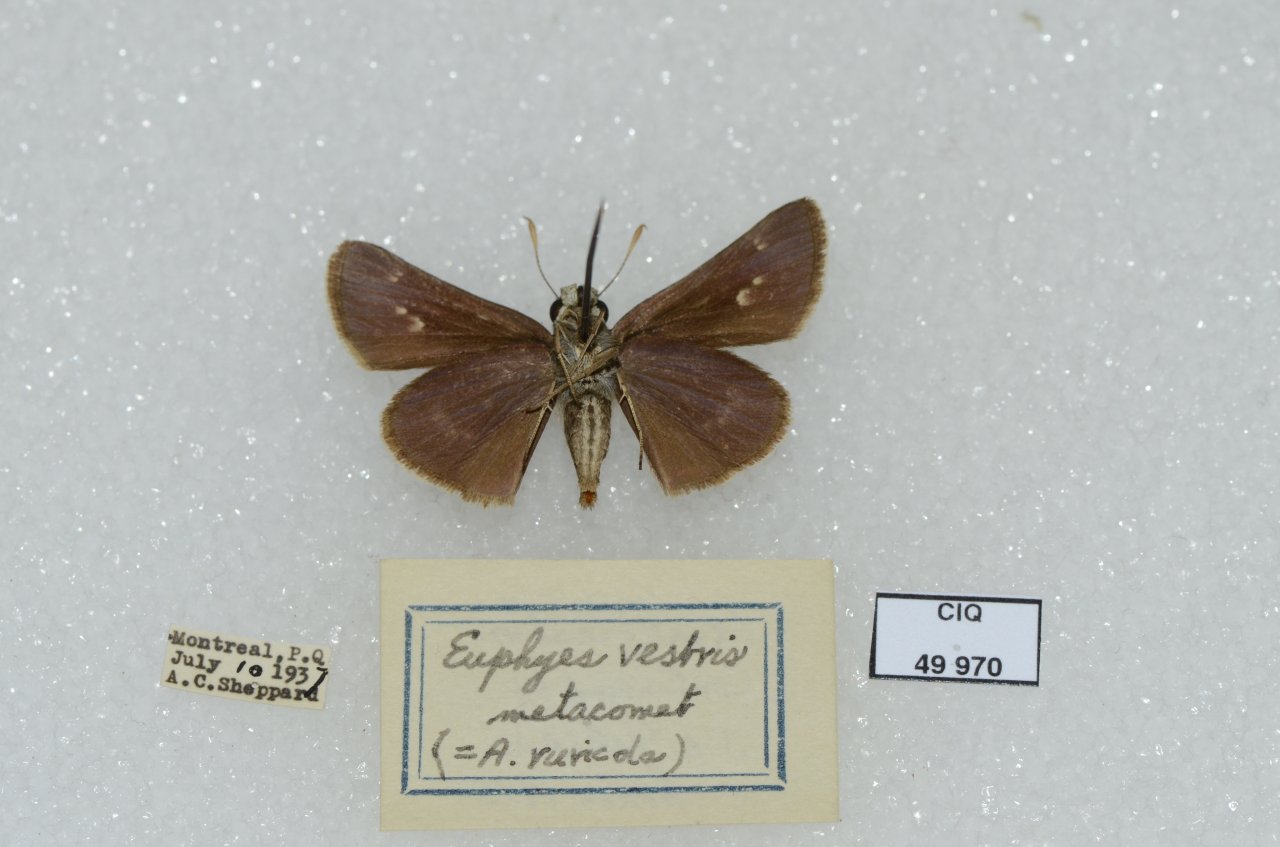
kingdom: Animalia
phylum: Arthropoda
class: Insecta
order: Lepidoptera
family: Hesperiidae
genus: Euphyes
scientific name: Euphyes vestris
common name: Dun Skipper
